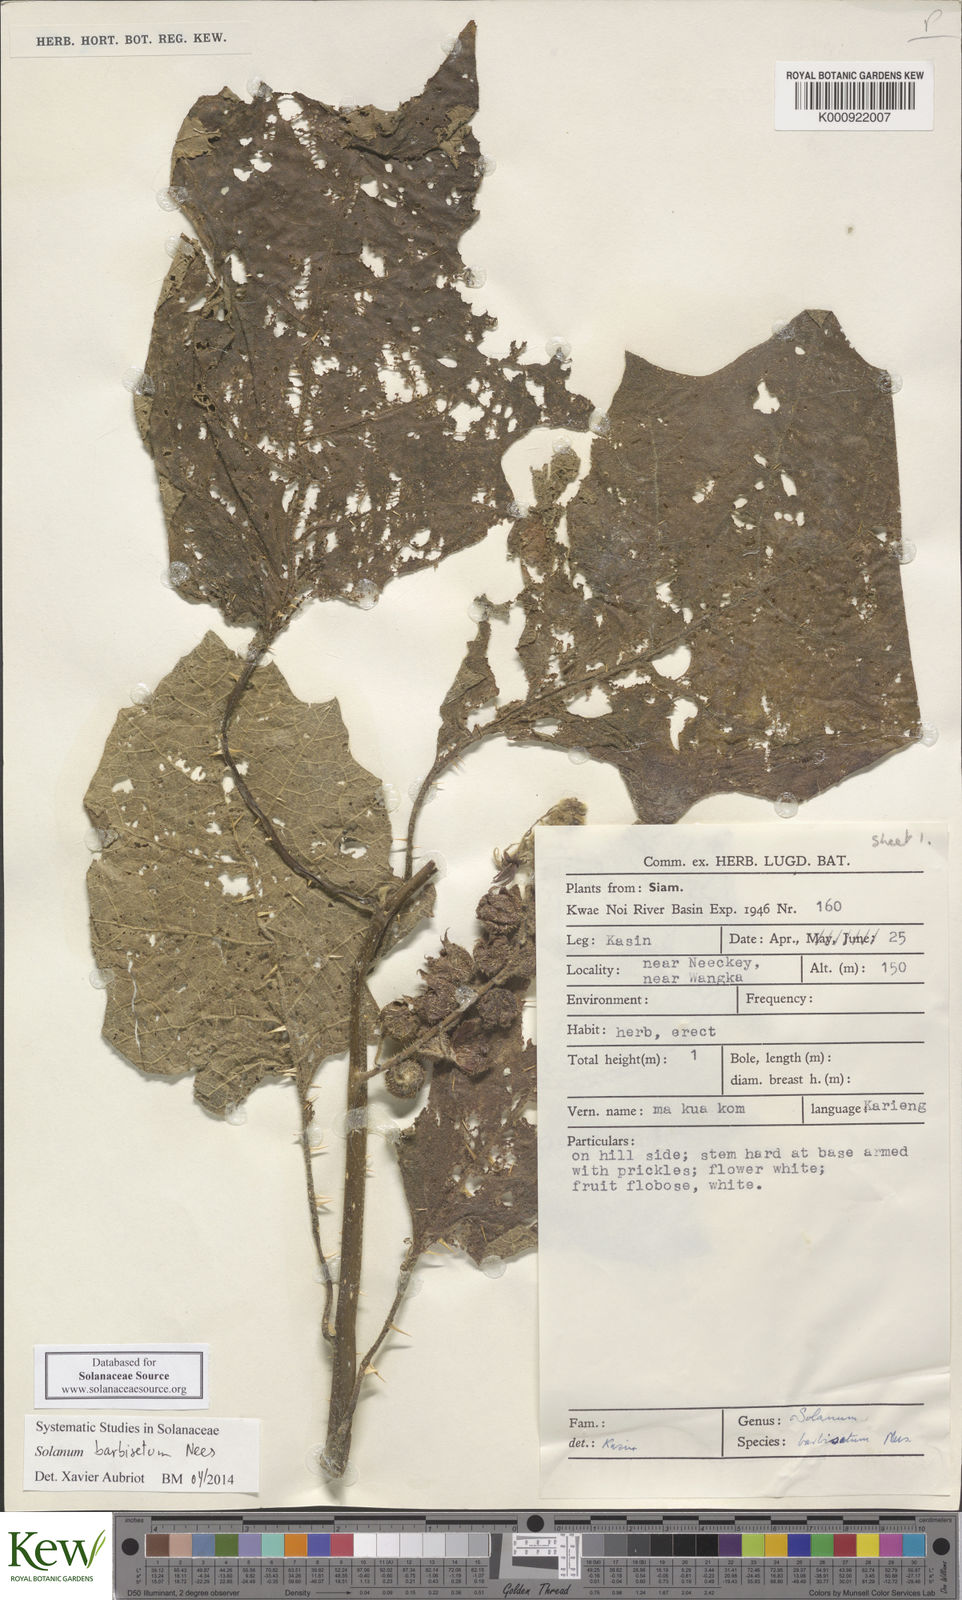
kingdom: Plantae
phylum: Tracheophyta
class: Magnoliopsida
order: Solanales
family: Solanaceae
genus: Solanum
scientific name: Solanum barbisetum
